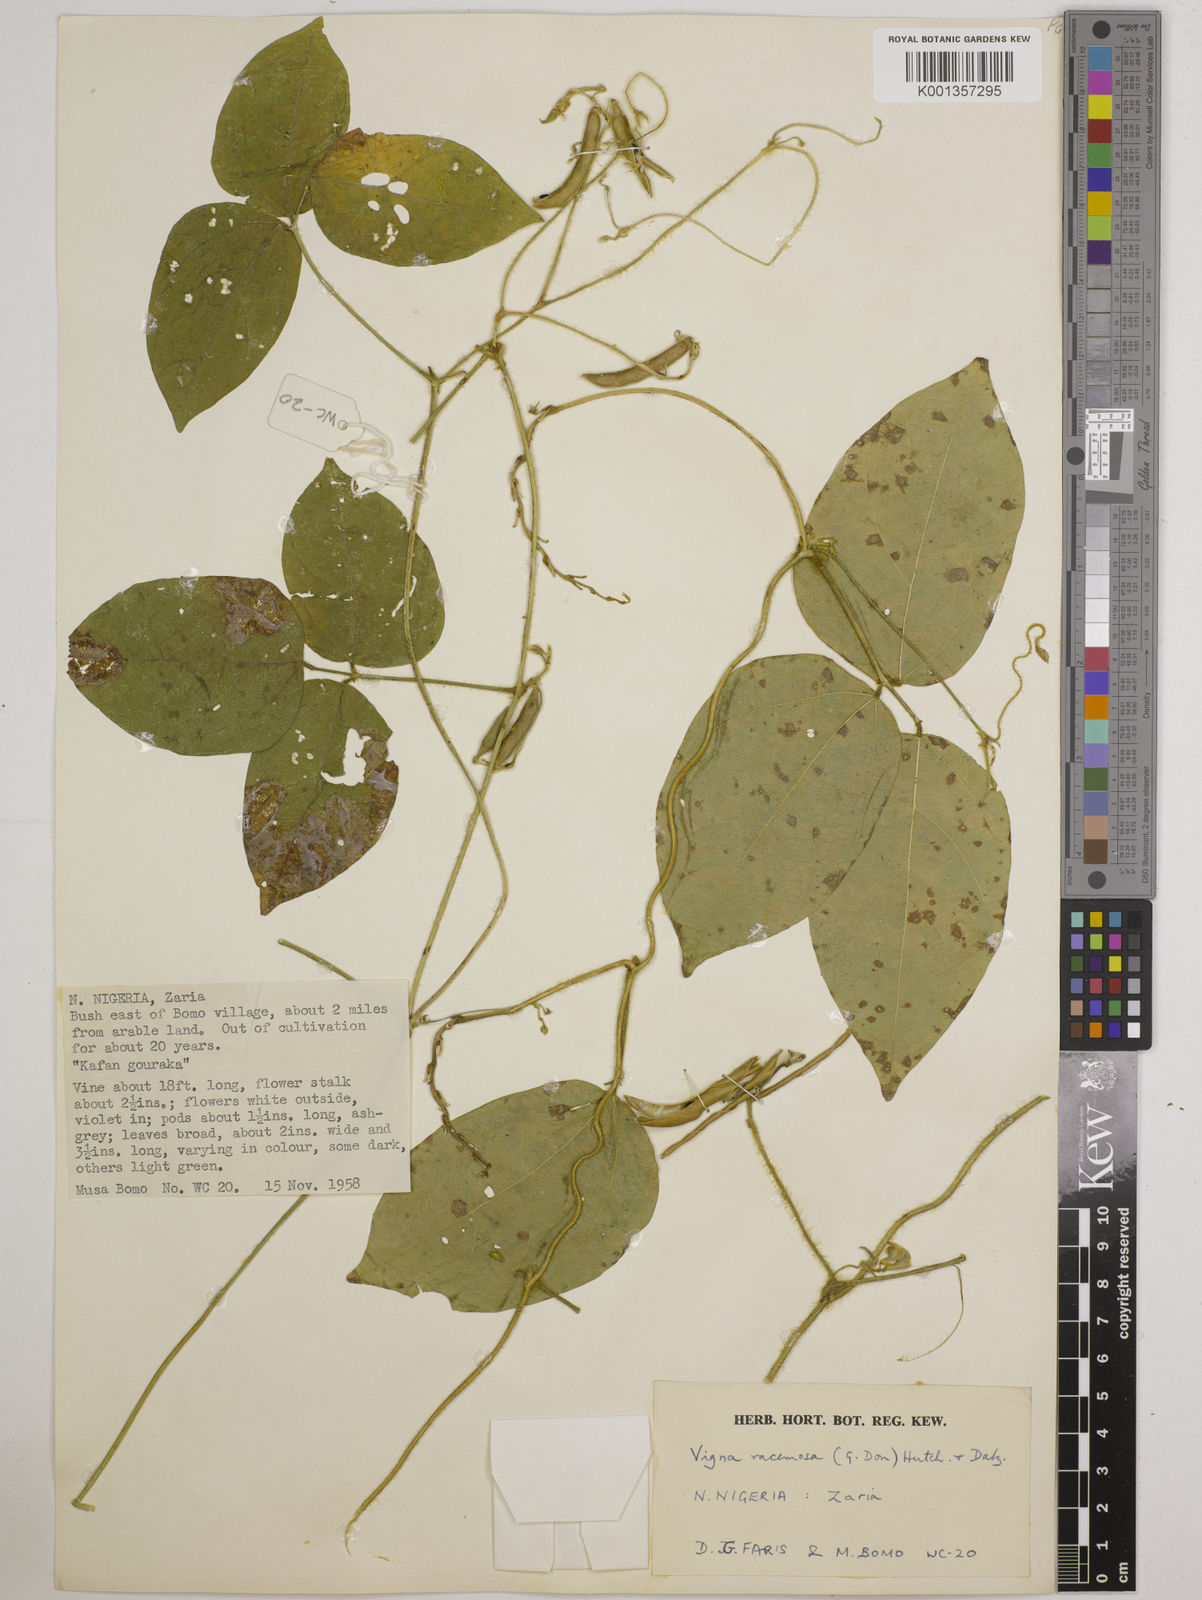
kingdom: Plantae
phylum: Tracheophyta
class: Magnoliopsida
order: Fabales
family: Fabaceae
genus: Vigna
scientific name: Vigna racemosa
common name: Beans not eaten
